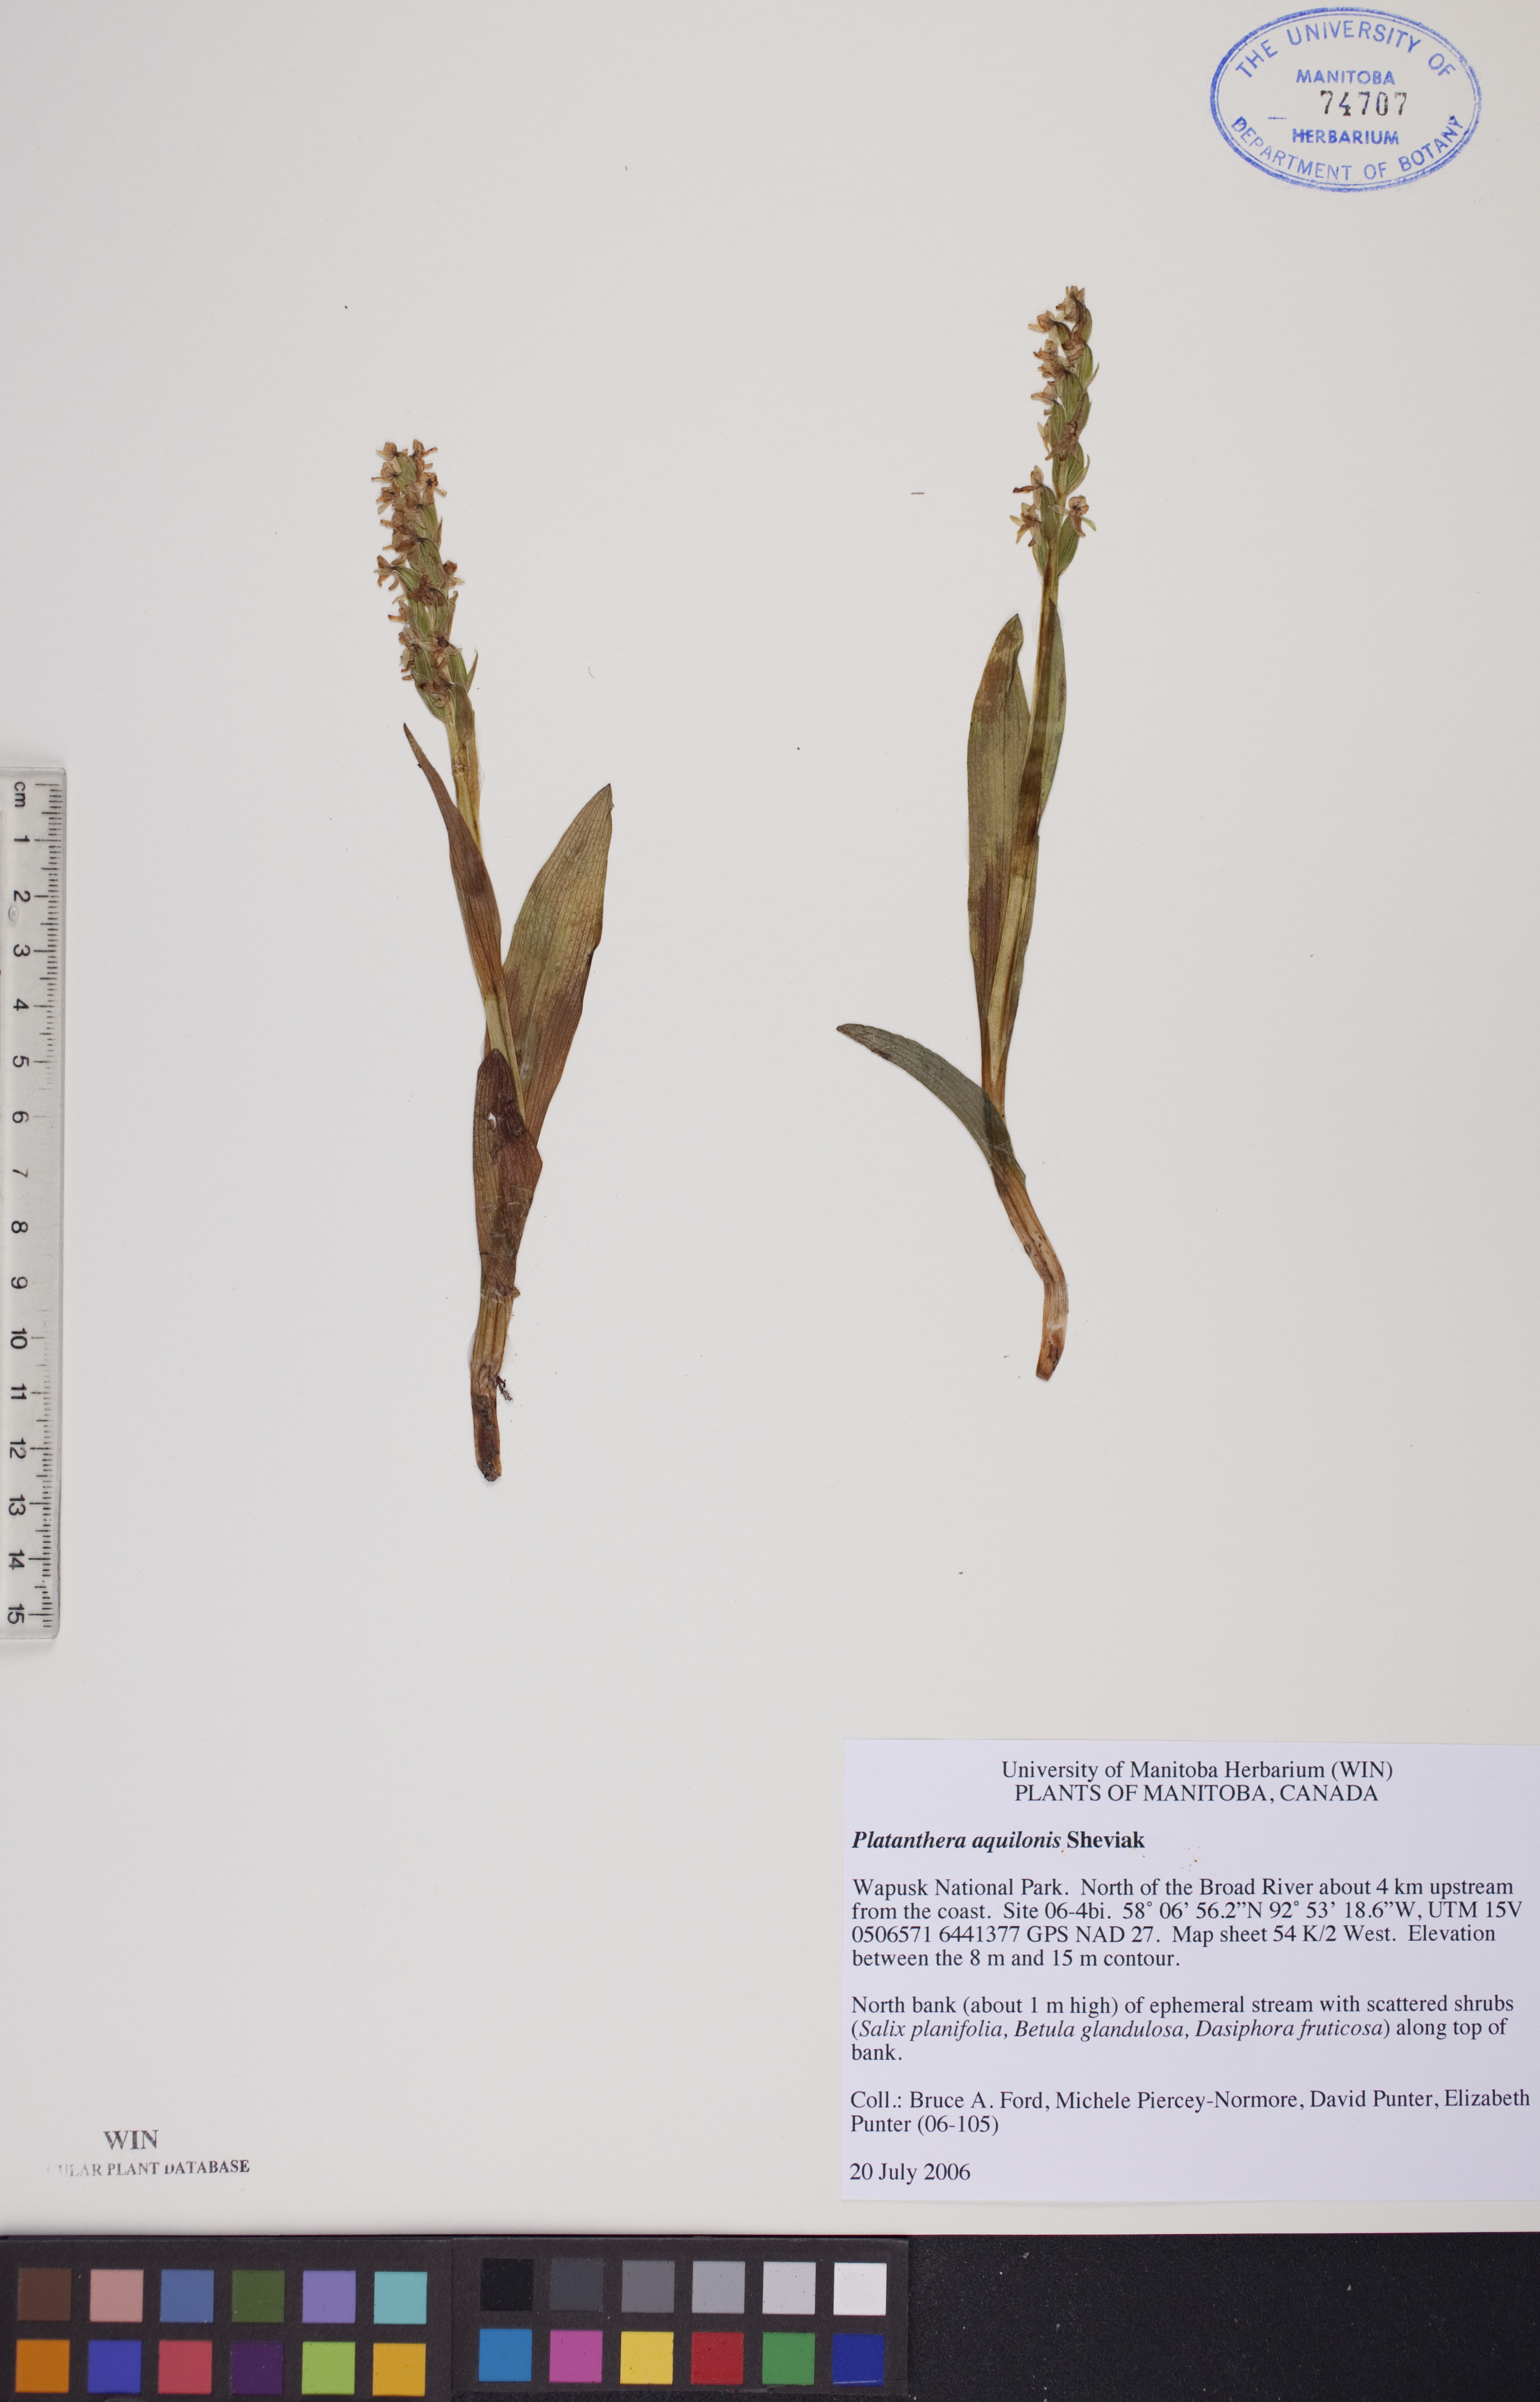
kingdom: Plantae
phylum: Tracheophyta
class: Liliopsida
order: Asparagales
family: Orchidaceae
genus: Platanthera
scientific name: Platanthera aquilonis
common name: Northern green orchid
